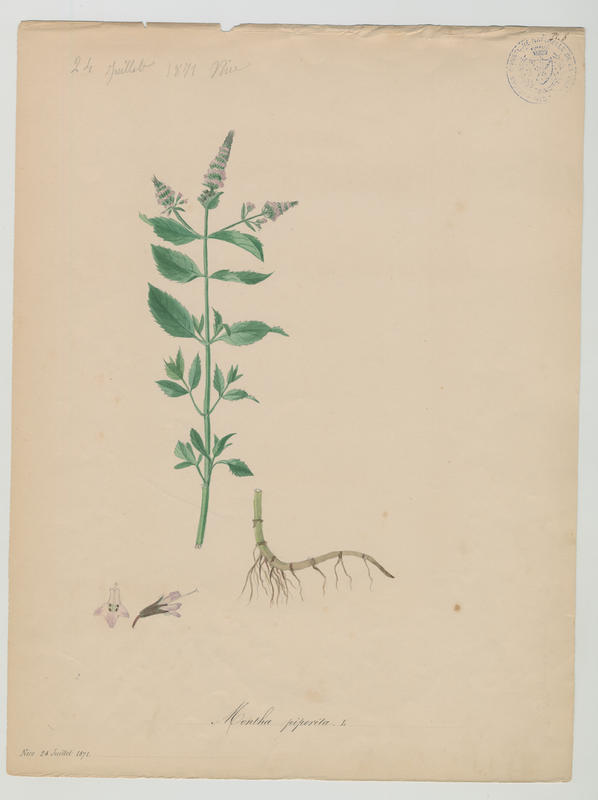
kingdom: Plantae
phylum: Tracheophyta
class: Magnoliopsida
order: Lamiales
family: Lamiaceae
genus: Mentha
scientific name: Mentha piperita
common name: Peppermint
